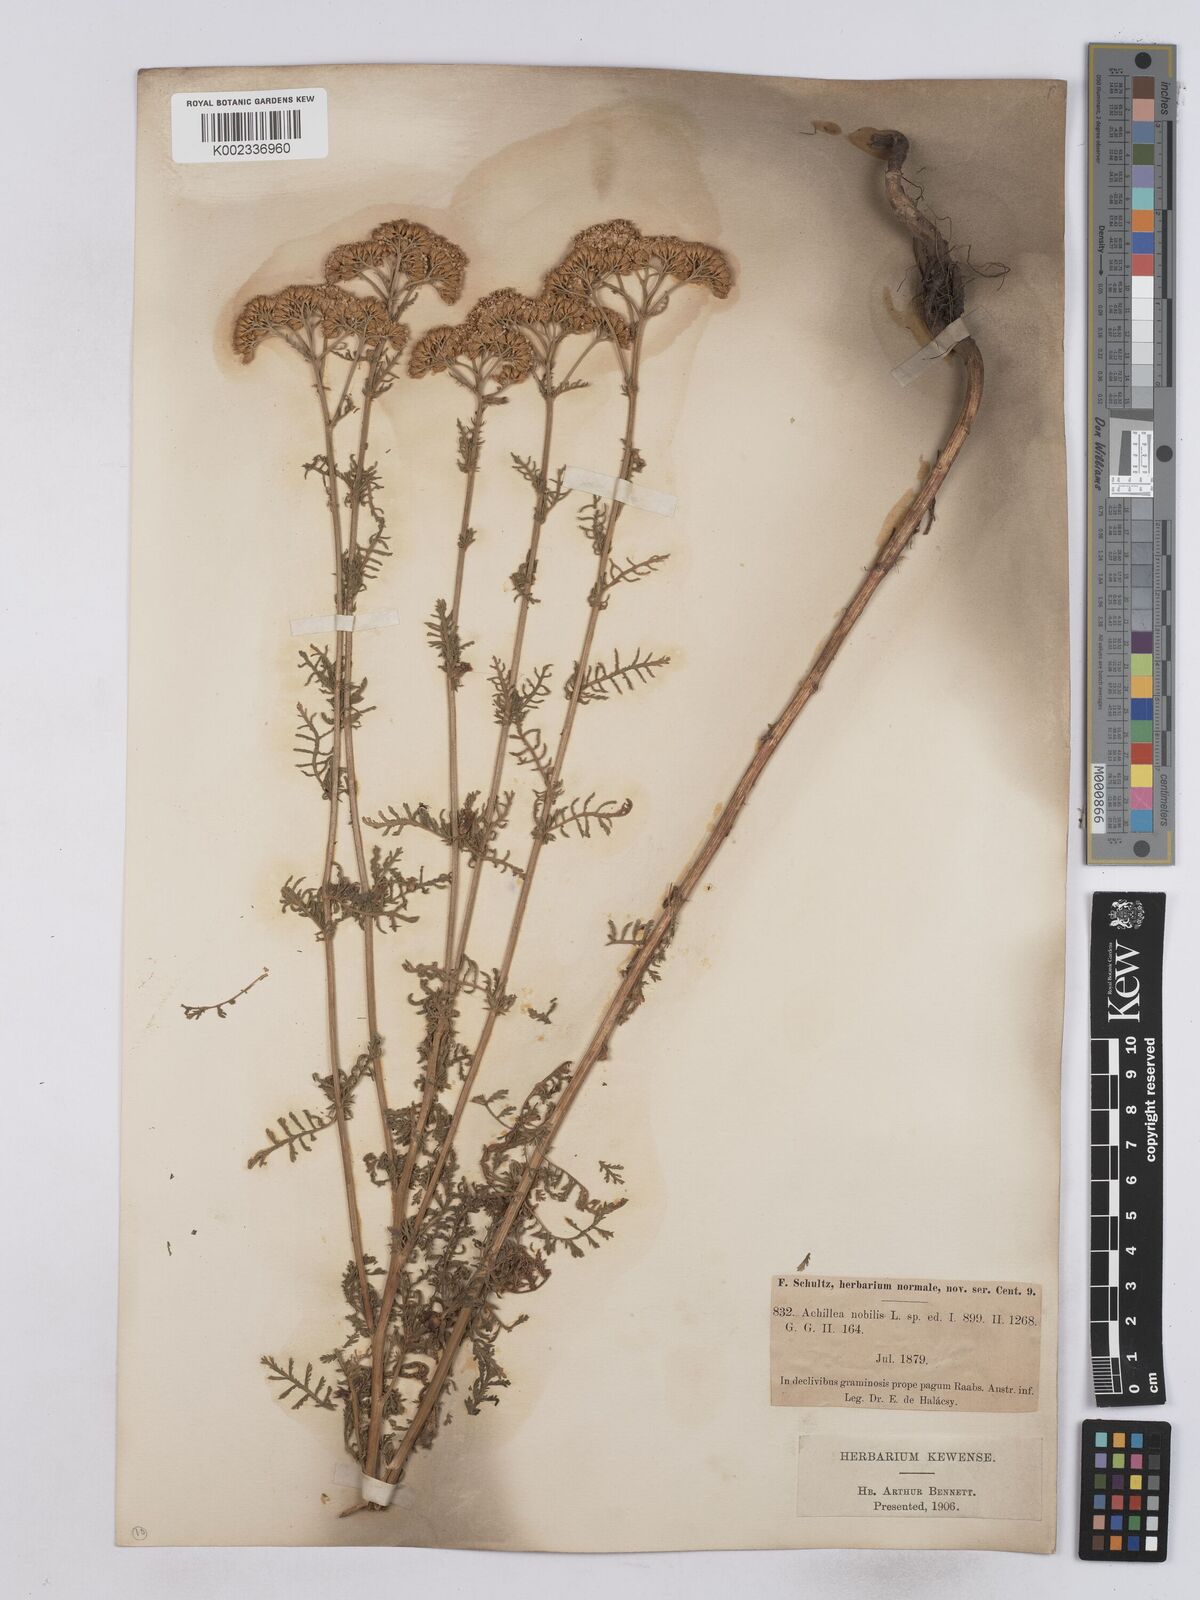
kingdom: Plantae
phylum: Tracheophyta
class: Magnoliopsida
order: Asterales
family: Asteraceae
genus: Achillea
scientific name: Achillea nobilis
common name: Noble yarrow
